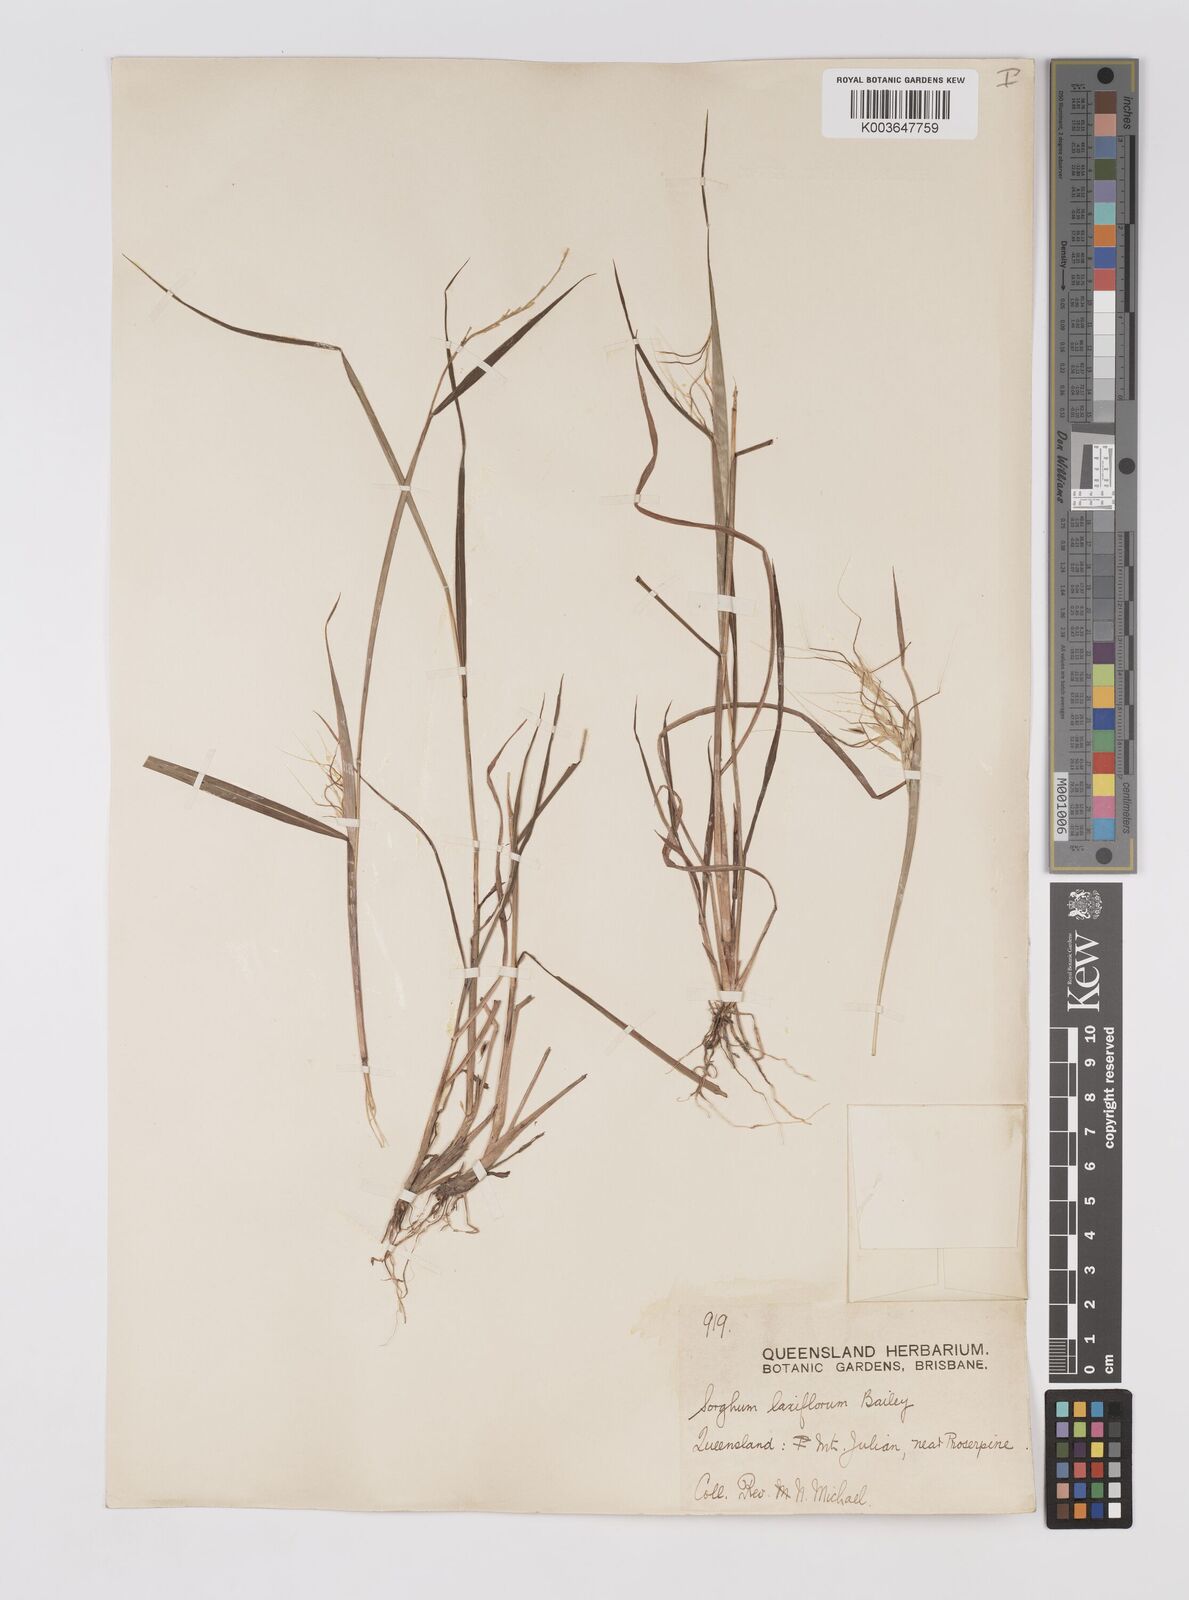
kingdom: Plantae
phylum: Tracheophyta
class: Liliopsida
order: Poales
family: Poaceae
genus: Sorghum
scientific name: Sorghum laxiflorum
